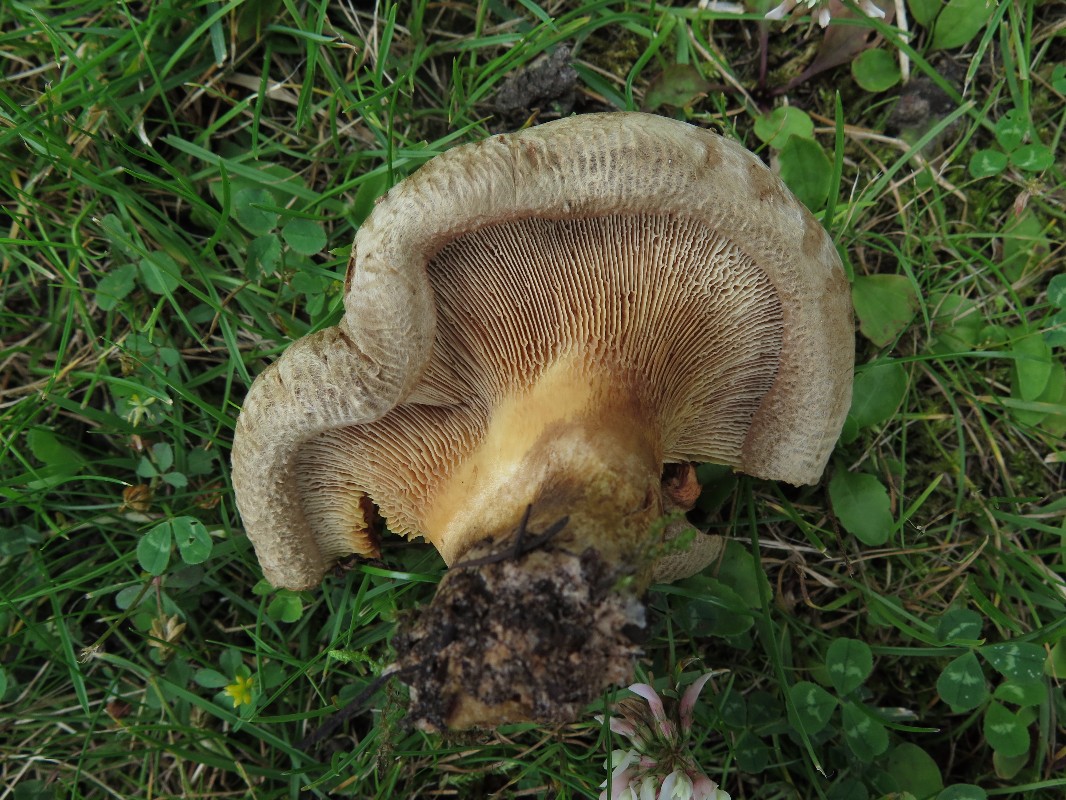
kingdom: Fungi
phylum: Basidiomycota
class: Agaricomycetes
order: Boletales
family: Paxillaceae
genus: Paxillus
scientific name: Paxillus obscurisporus
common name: mahognisporet netbladhat
